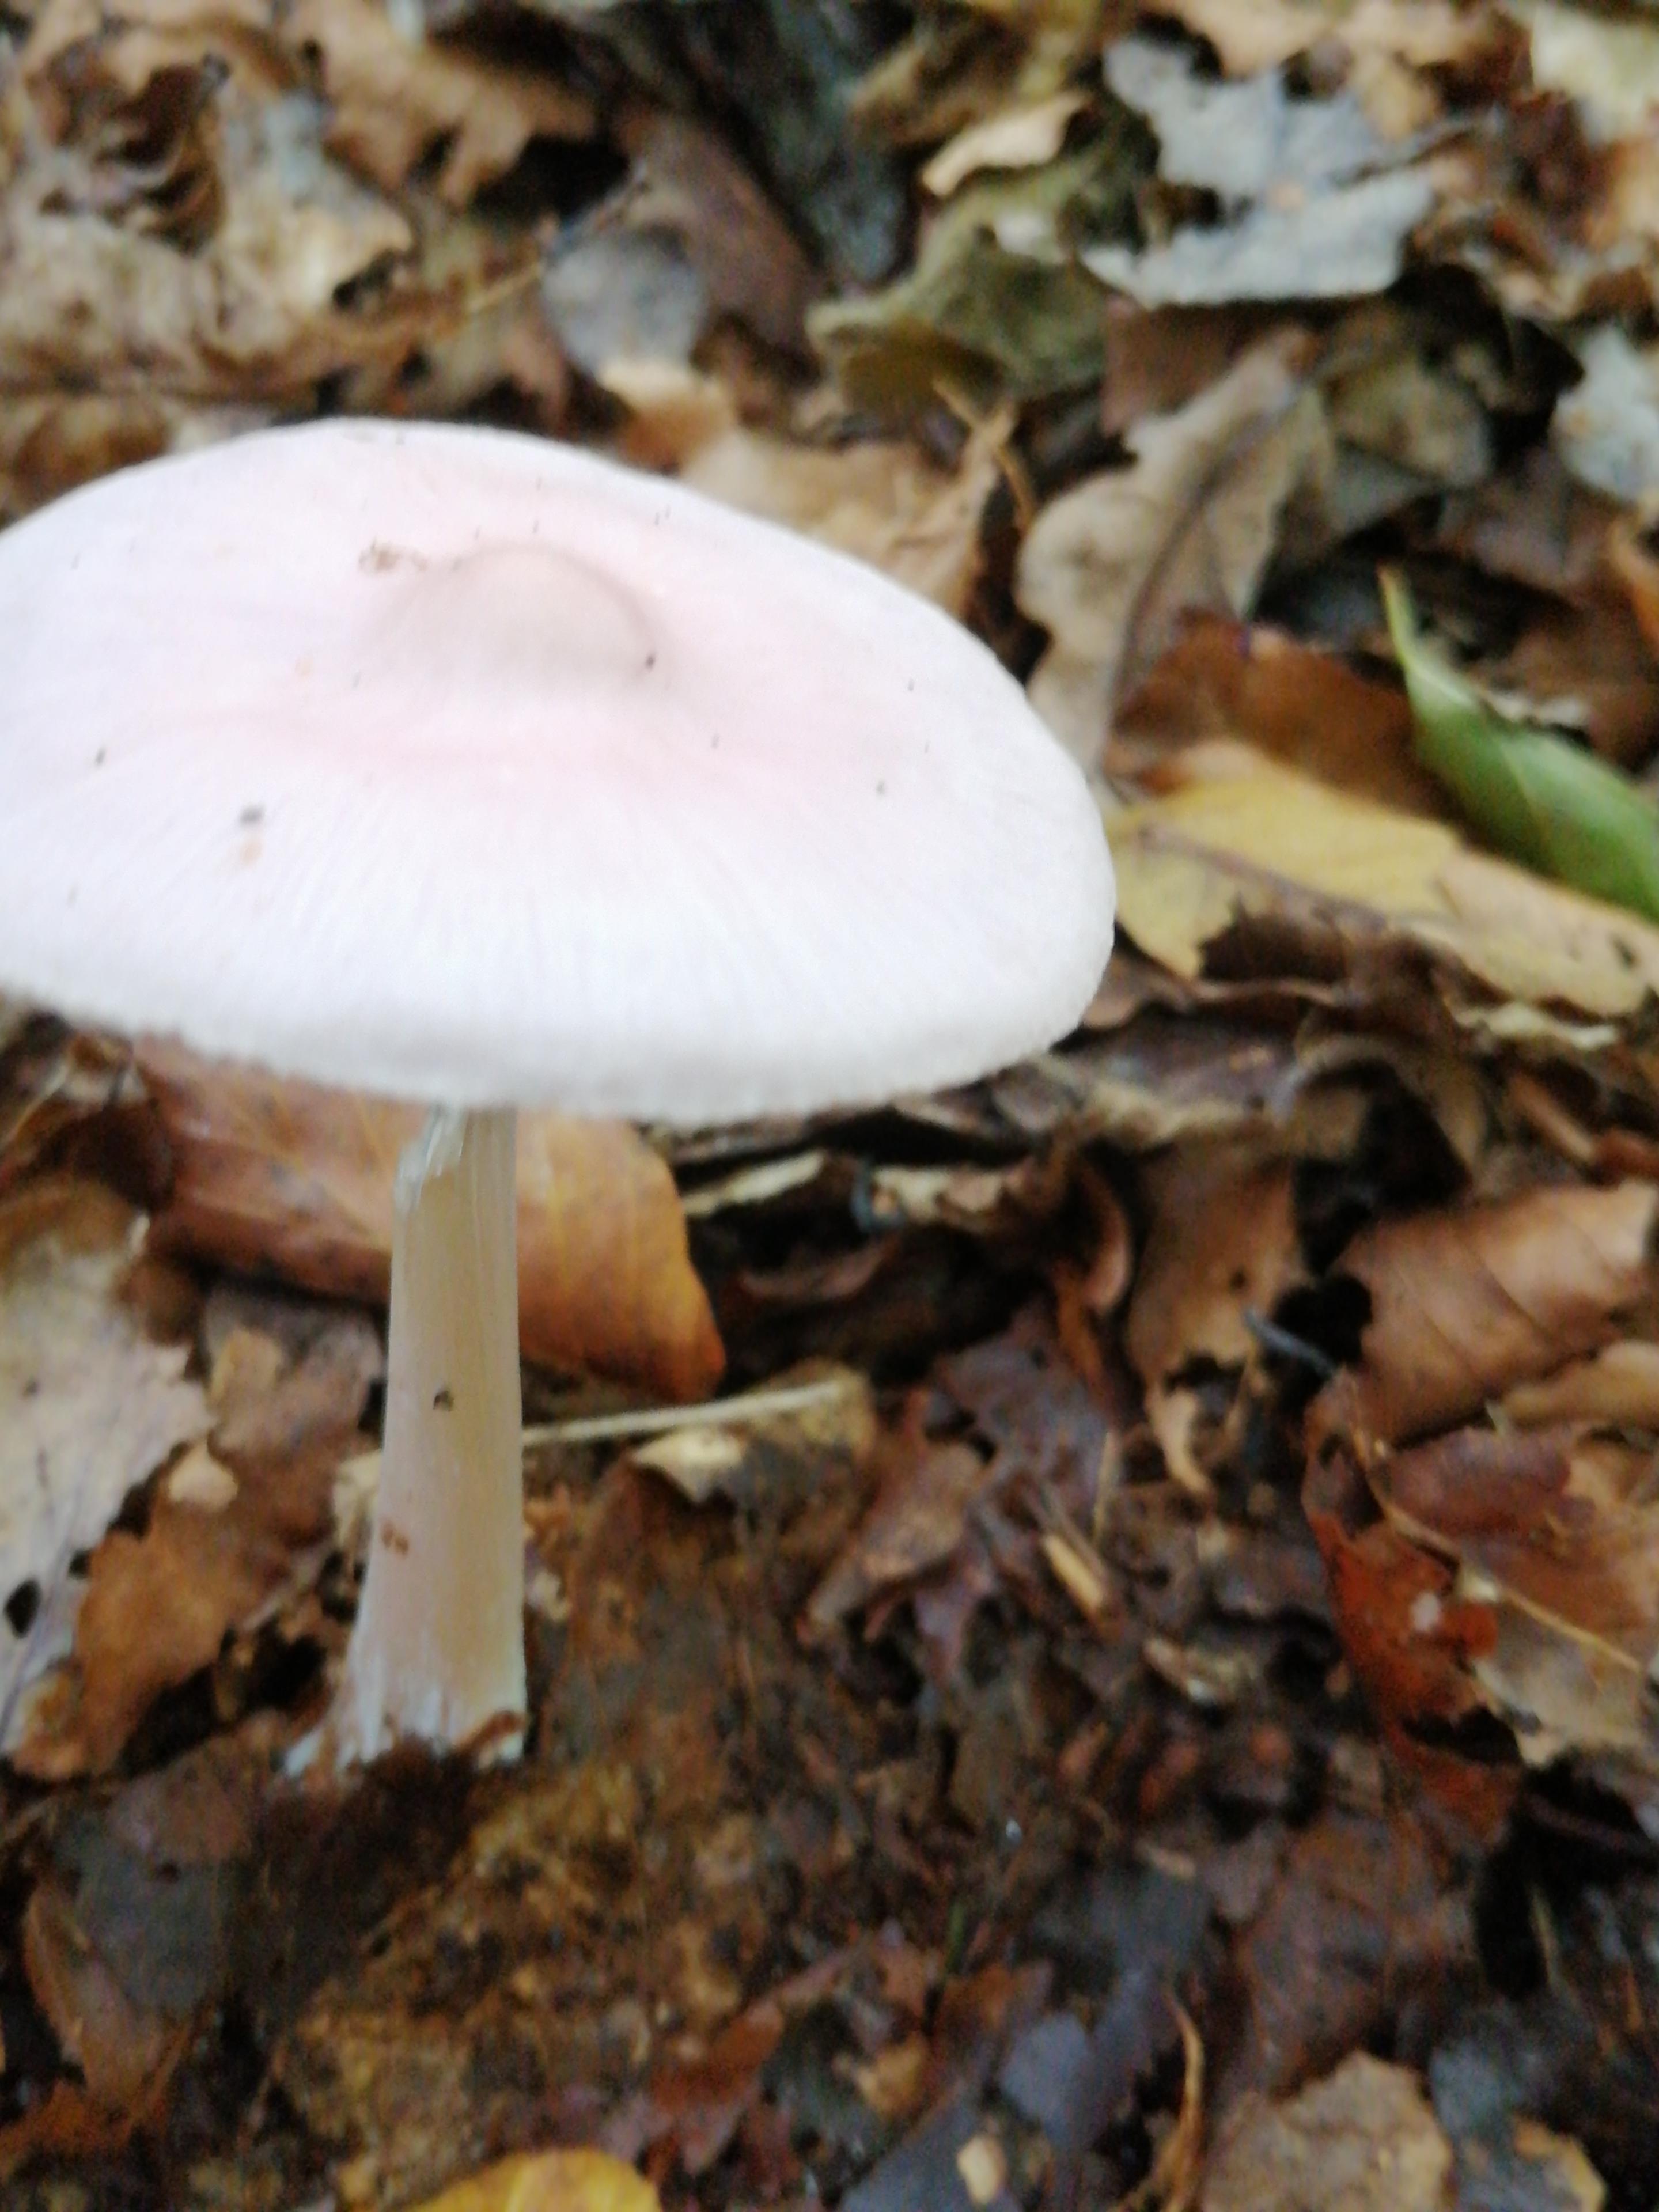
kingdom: Fungi
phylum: Basidiomycota
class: Agaricomycetes
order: Agaricales
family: Mycenaceae
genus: Mycena
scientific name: Mycena rosea
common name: rosa huesvamp
